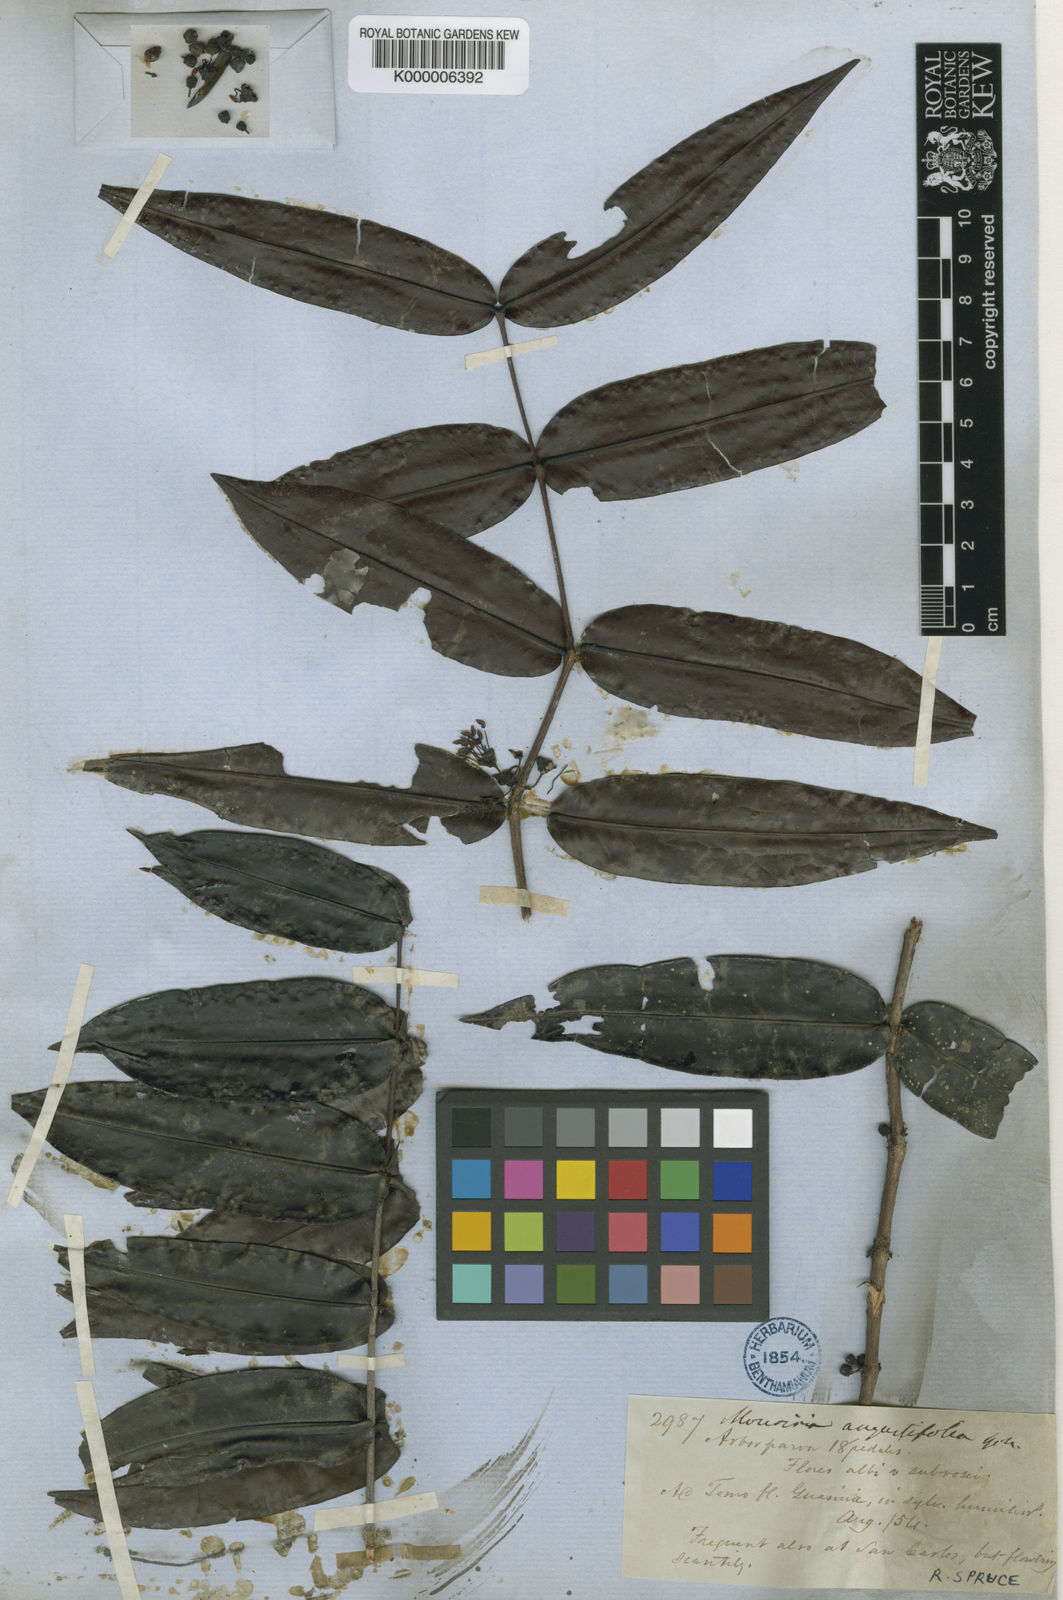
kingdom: Plantae
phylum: Tracheophyta
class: Magnoliopsida
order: Myrtales
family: Melastomataceae
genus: Mouriri
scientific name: Mouriri angustifolia
